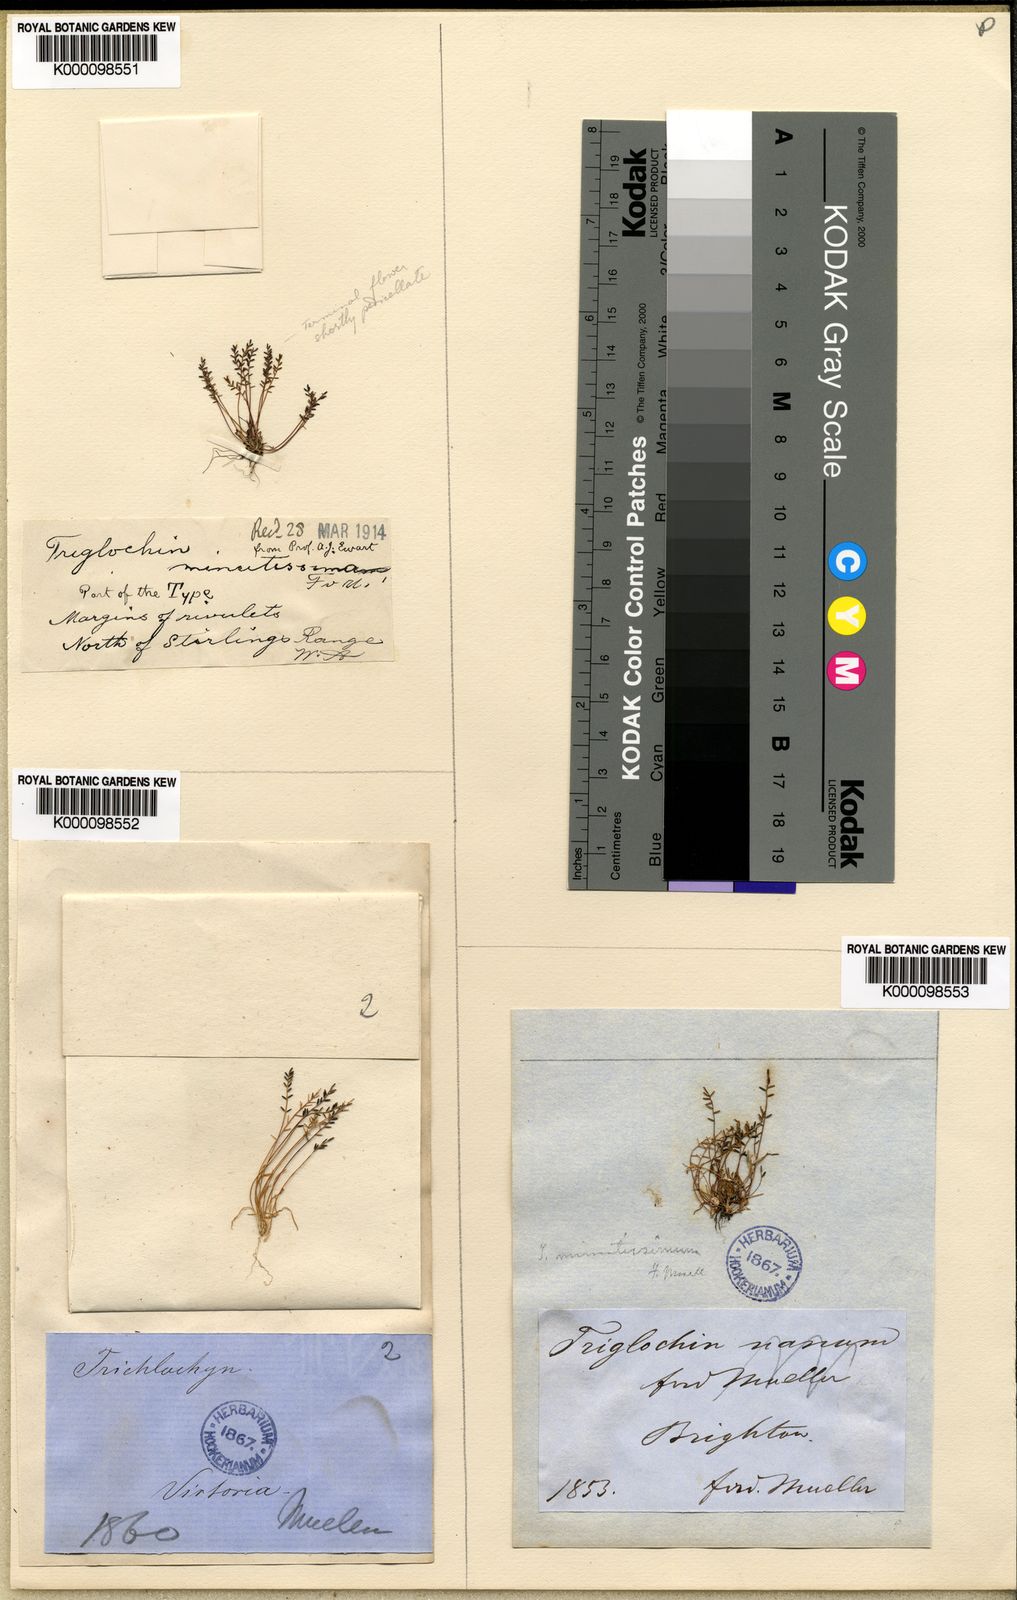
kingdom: Plantae
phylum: Tracheophyta
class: Liliopsida
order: Alismatales
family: Juncaginaceae
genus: Triglochin
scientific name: Triglochin minutissima
